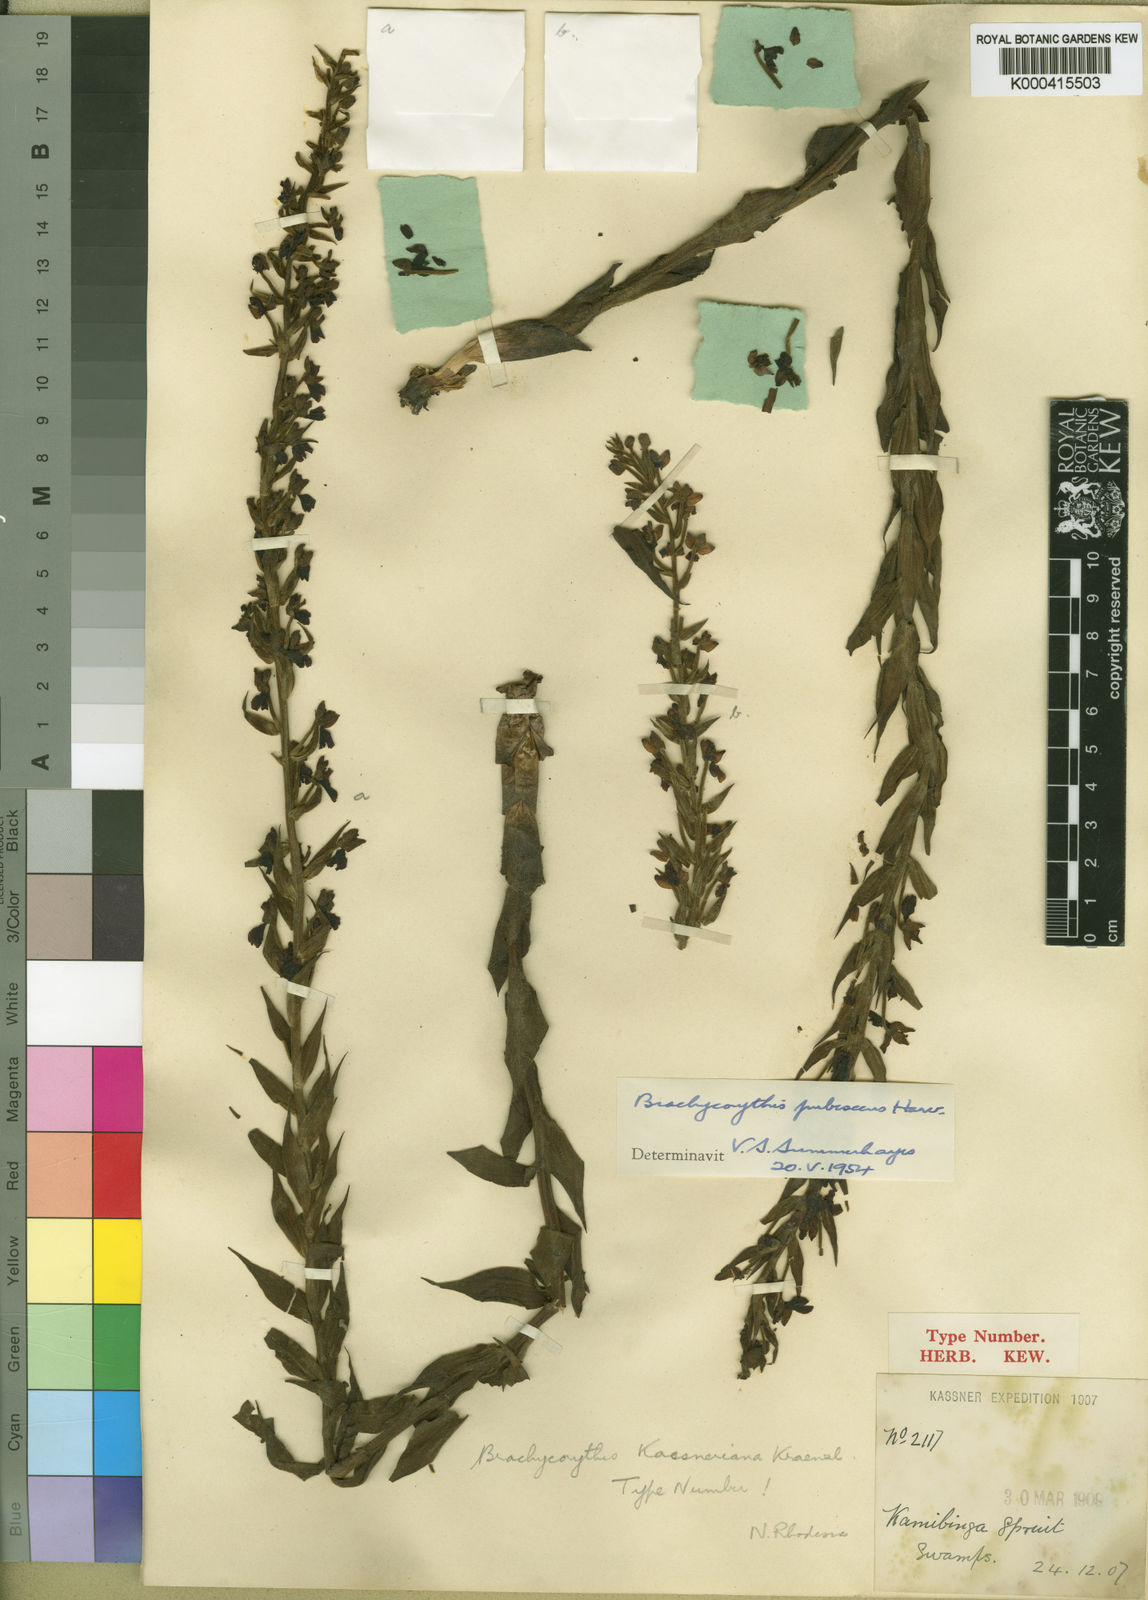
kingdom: Plantae
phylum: Tracheophyta
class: Liliopsida
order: Asparagales
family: Orchidaceae
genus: Brachycorythis
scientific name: Brachycorythis pubescens
